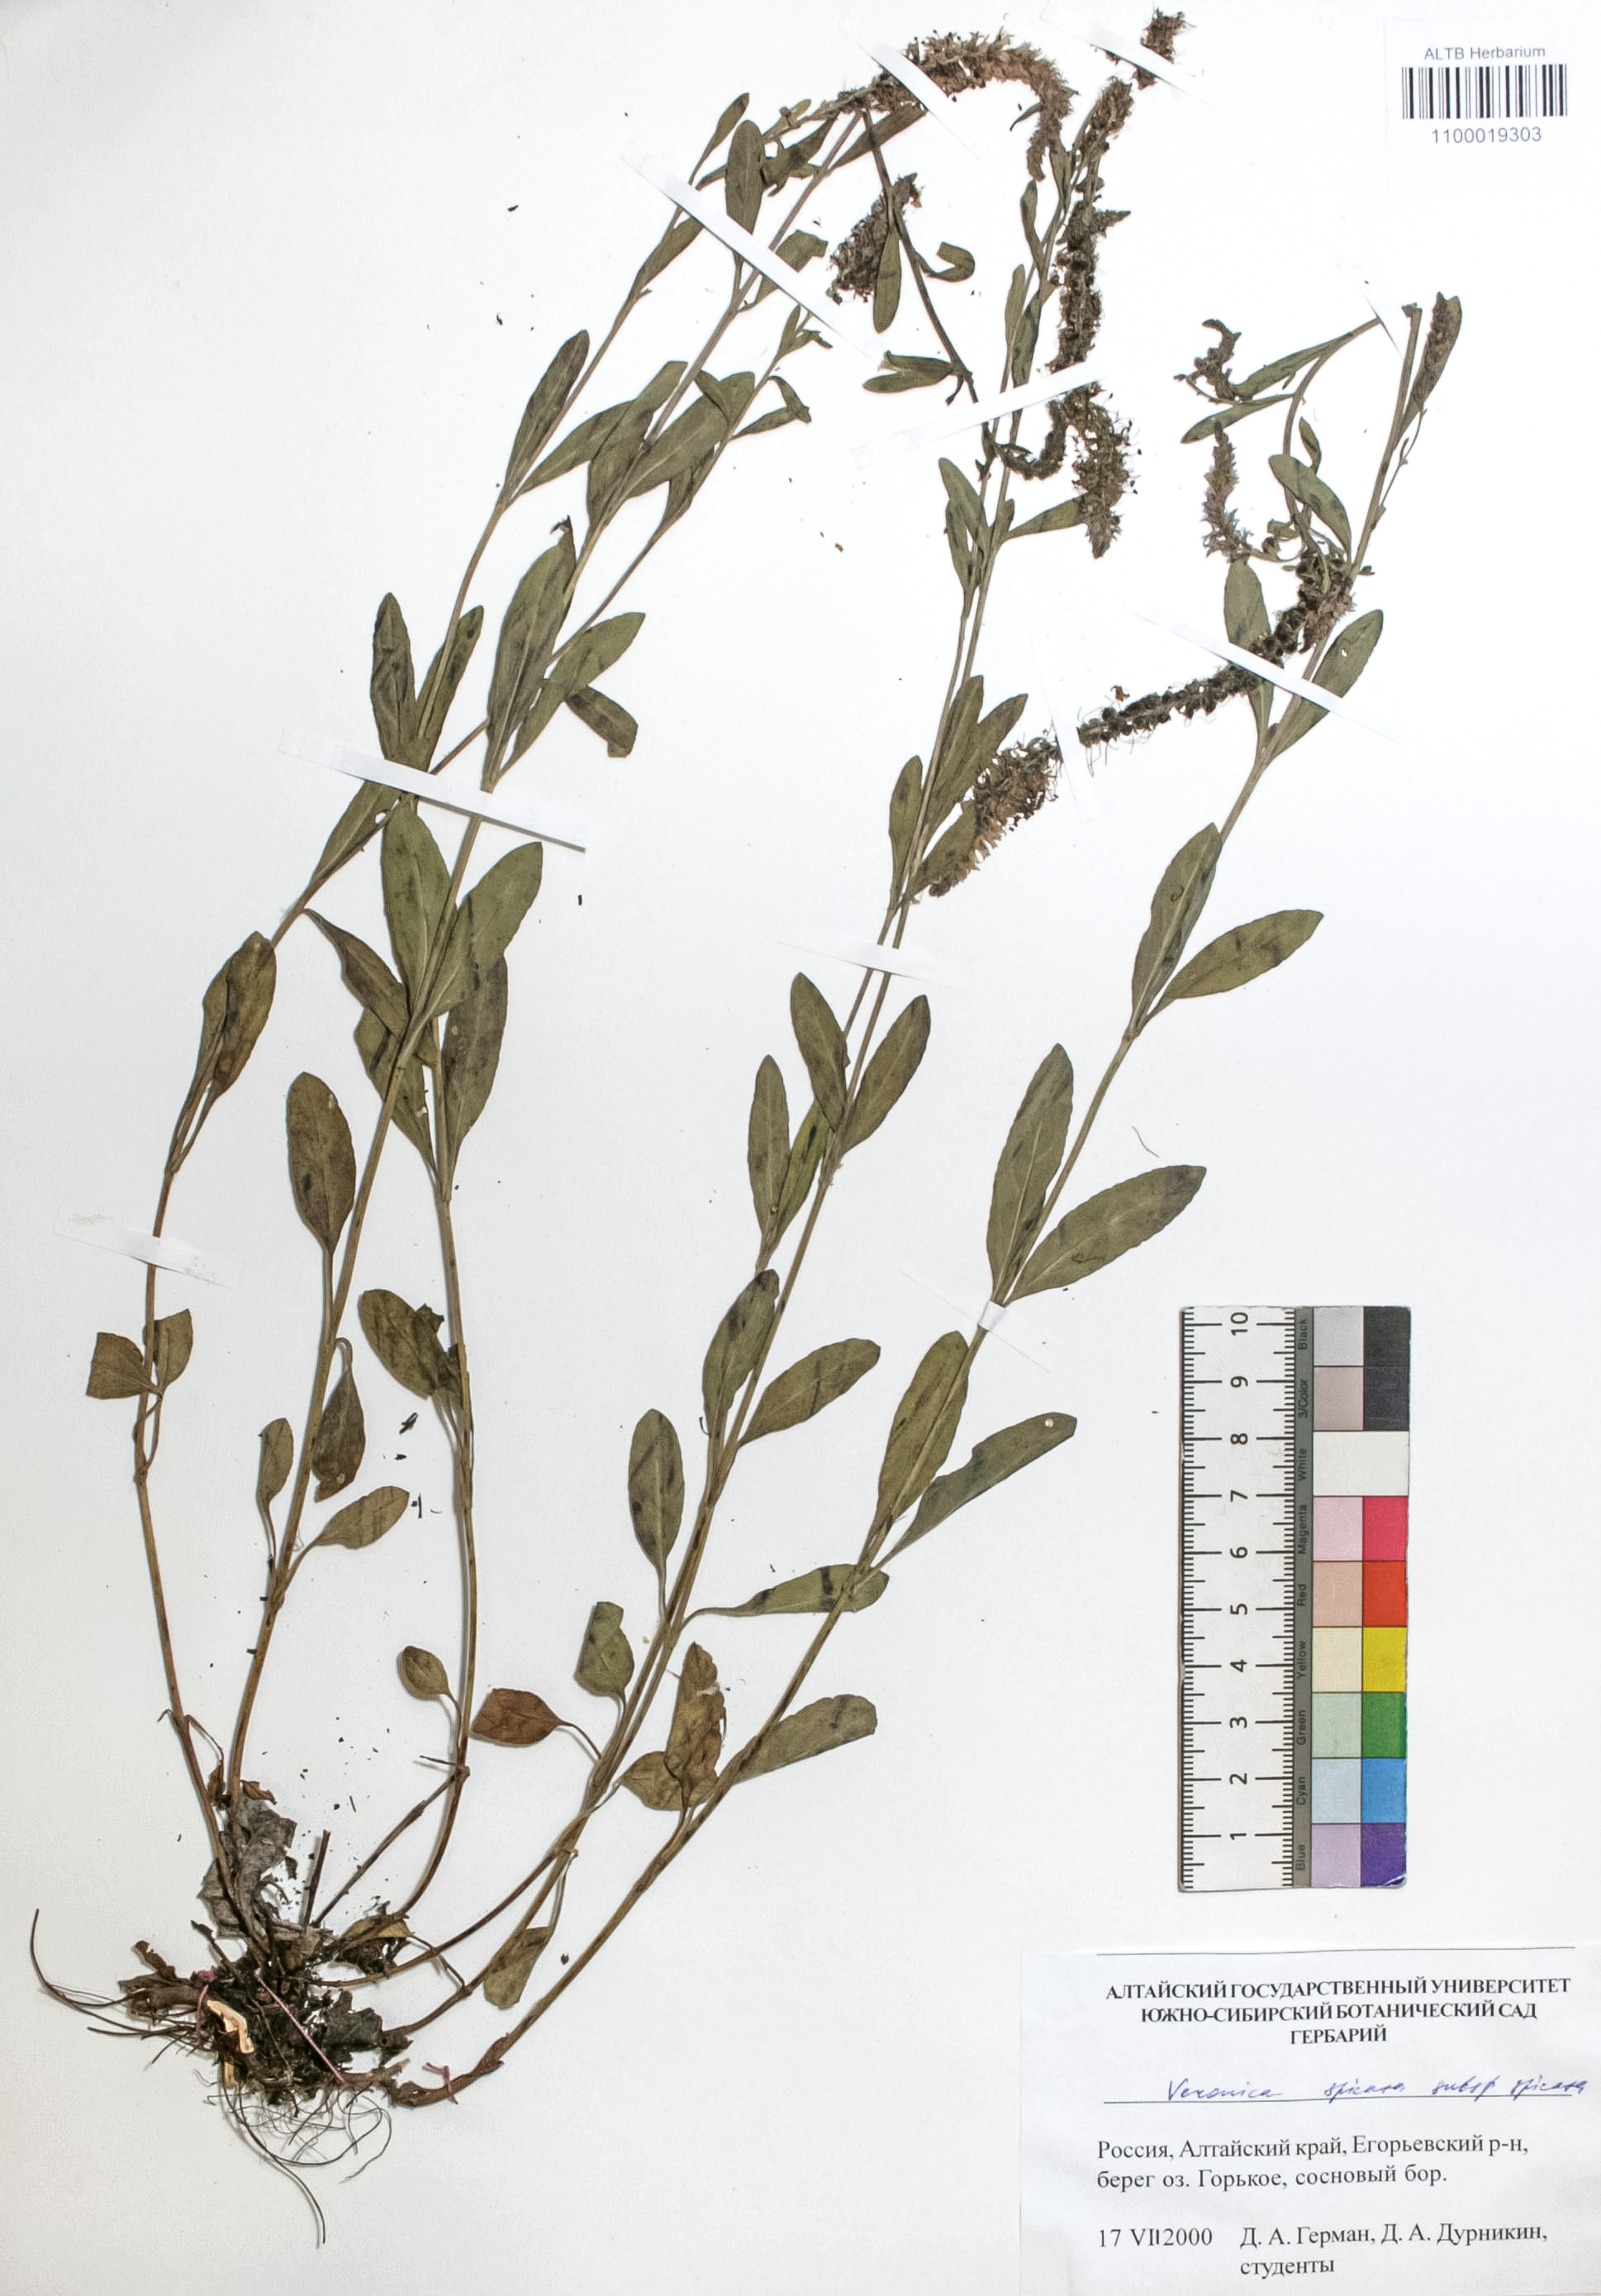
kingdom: Plantae
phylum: Tracheophyta
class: Magnoliopsida
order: Lamiales
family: Plantaginaceae
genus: Veronica
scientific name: Veronica spicata
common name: Spiked speedwell
